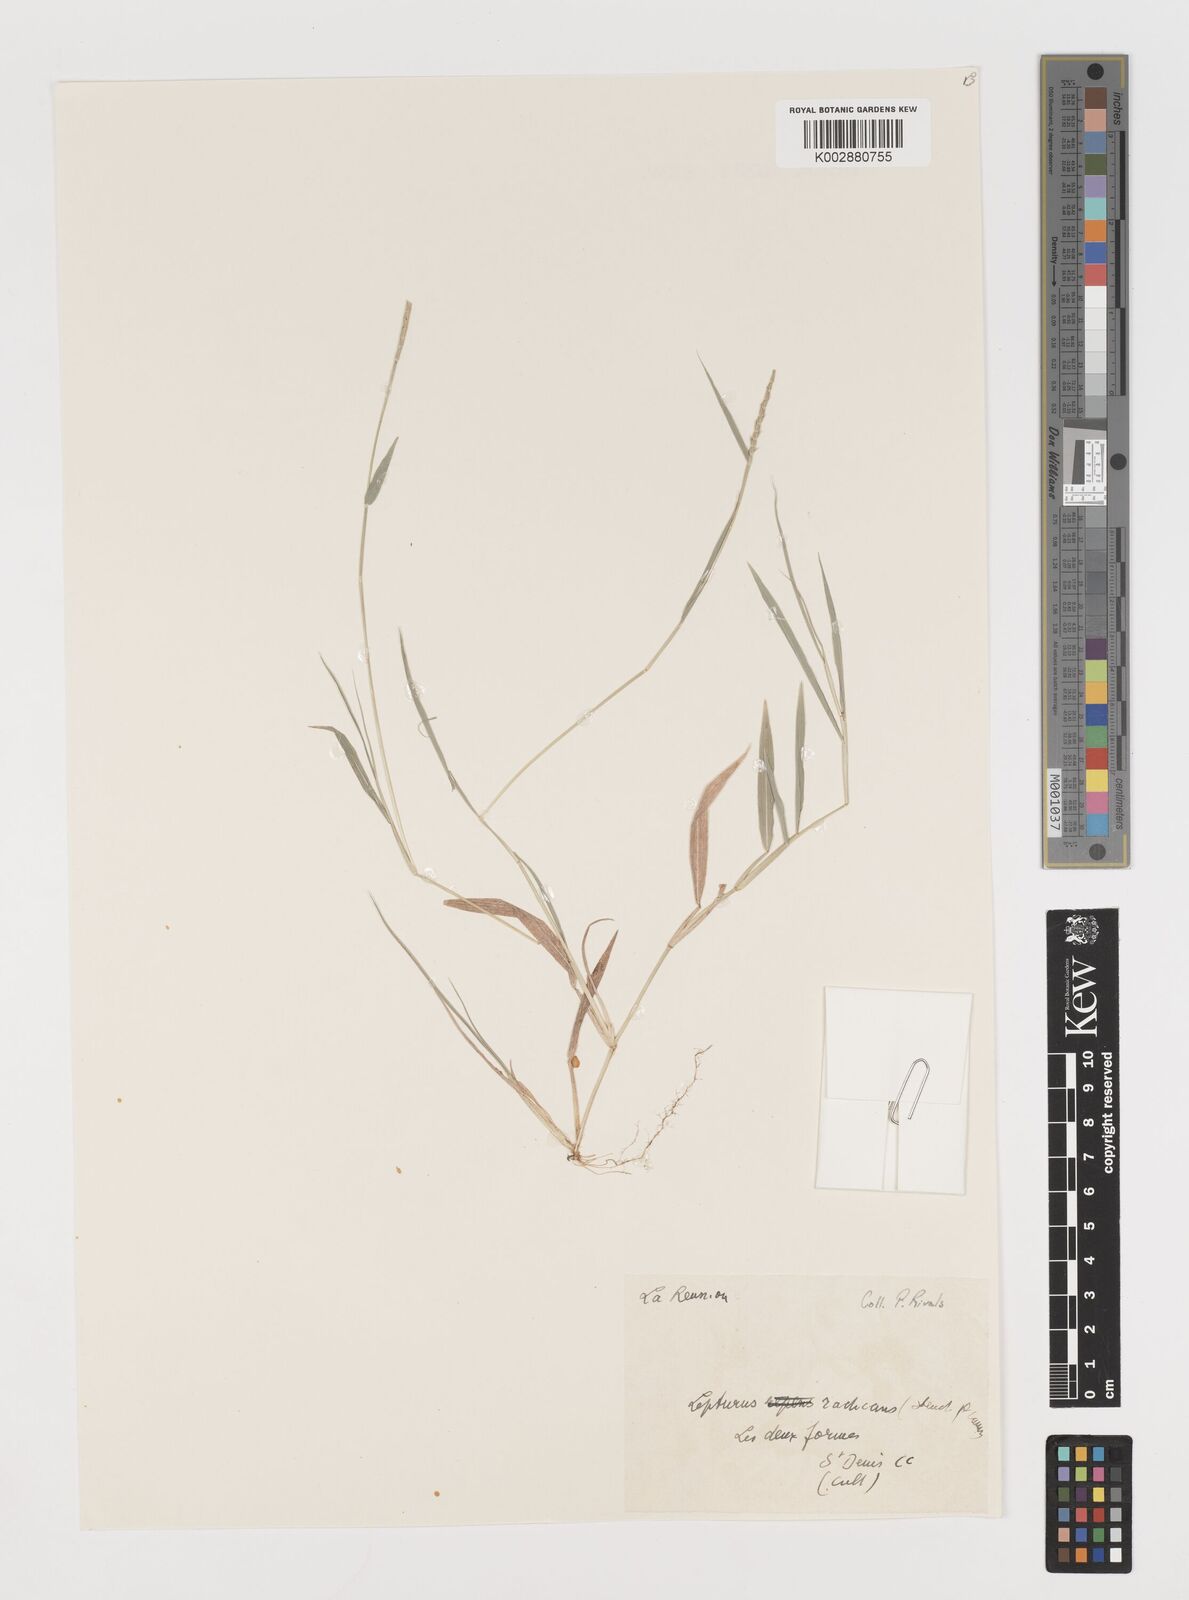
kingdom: Plantae
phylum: Tracheophyta
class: Liliopsida
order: Poales
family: Poaceae
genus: Lepturus
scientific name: Lepturus radicans
